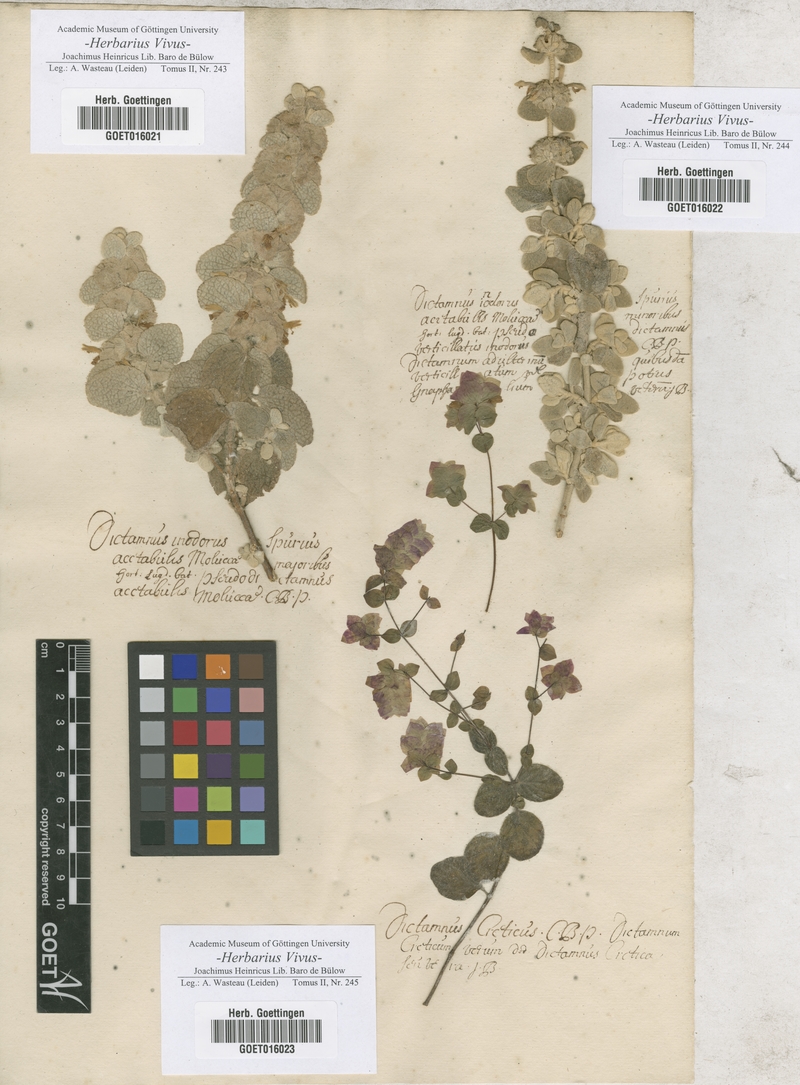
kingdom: Plantae
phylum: Tracheophyta
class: Magnoliopsida
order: Sapindales
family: Rutaceae
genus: Dictamnus
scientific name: Dictamnus
